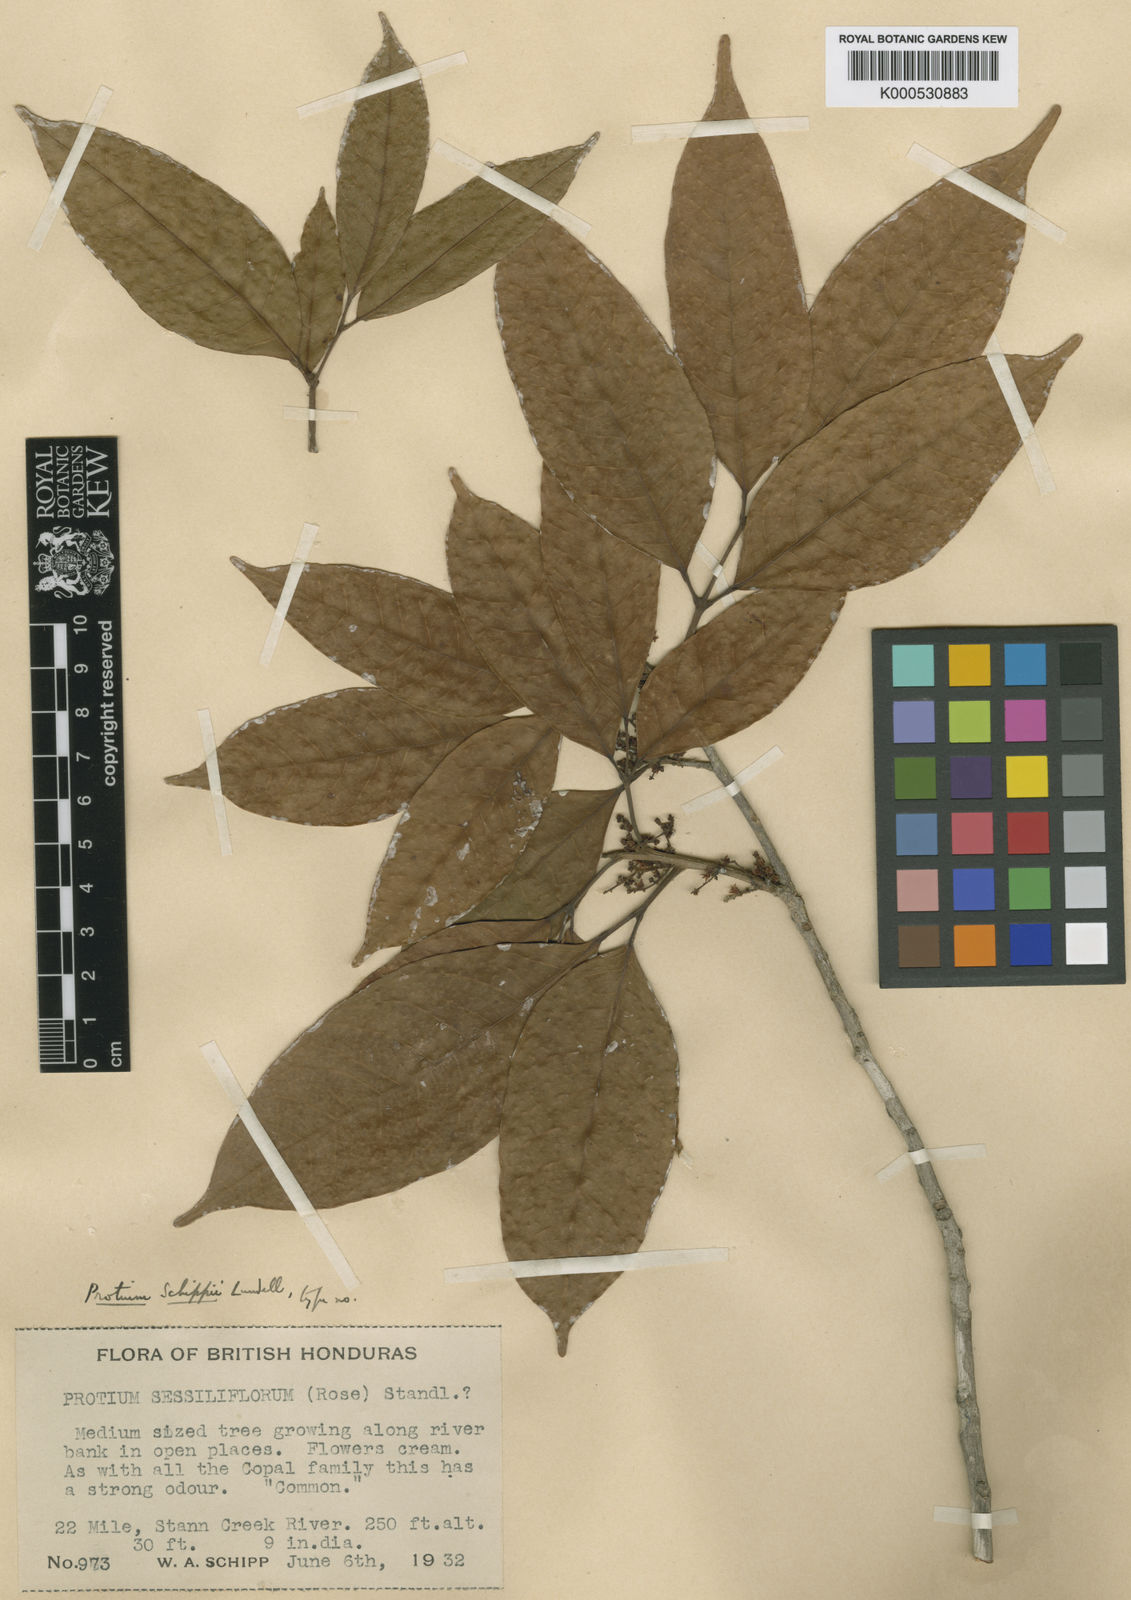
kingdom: Plantae
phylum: Tracheophyta
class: Magnoliopsida
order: Sapindales
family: Burseraceae
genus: Protium
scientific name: Protium confusum
